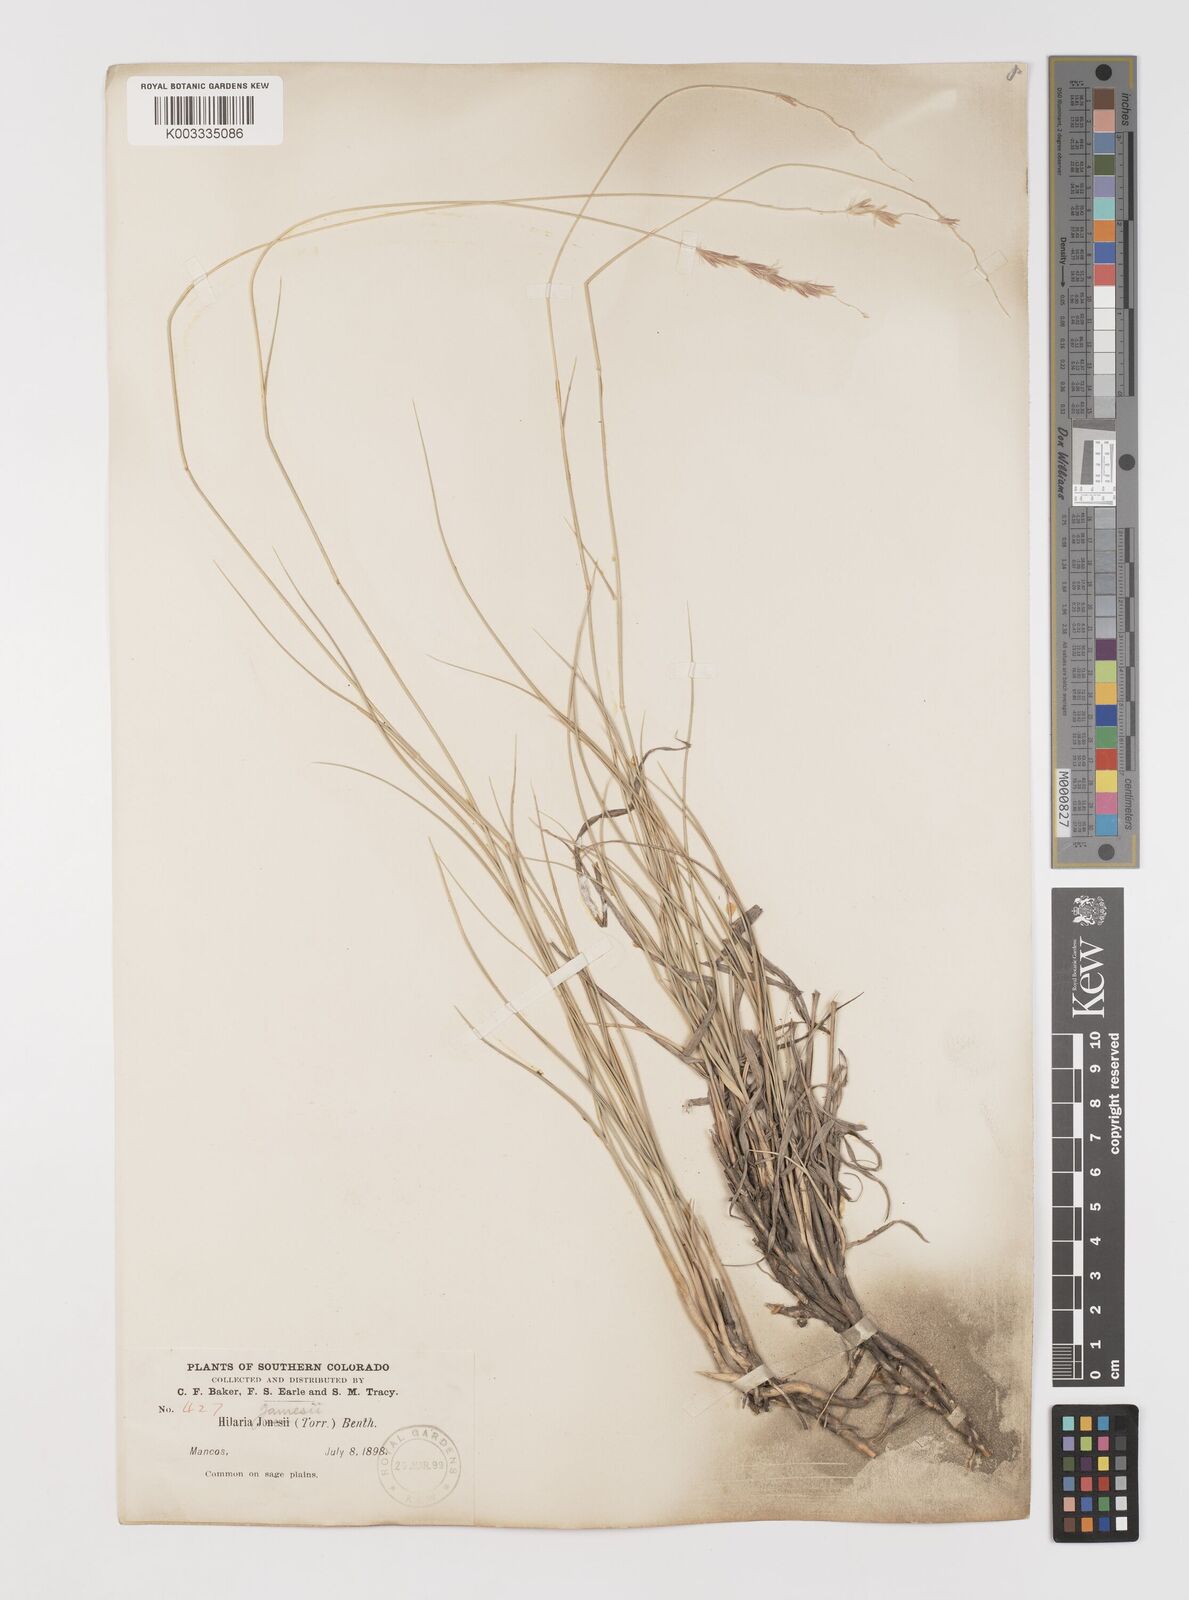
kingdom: Plantae
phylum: Tracheophyta
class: Liliopsida
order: Poales
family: Poaceae
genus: Hilaria
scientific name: Hilaria jamesii
